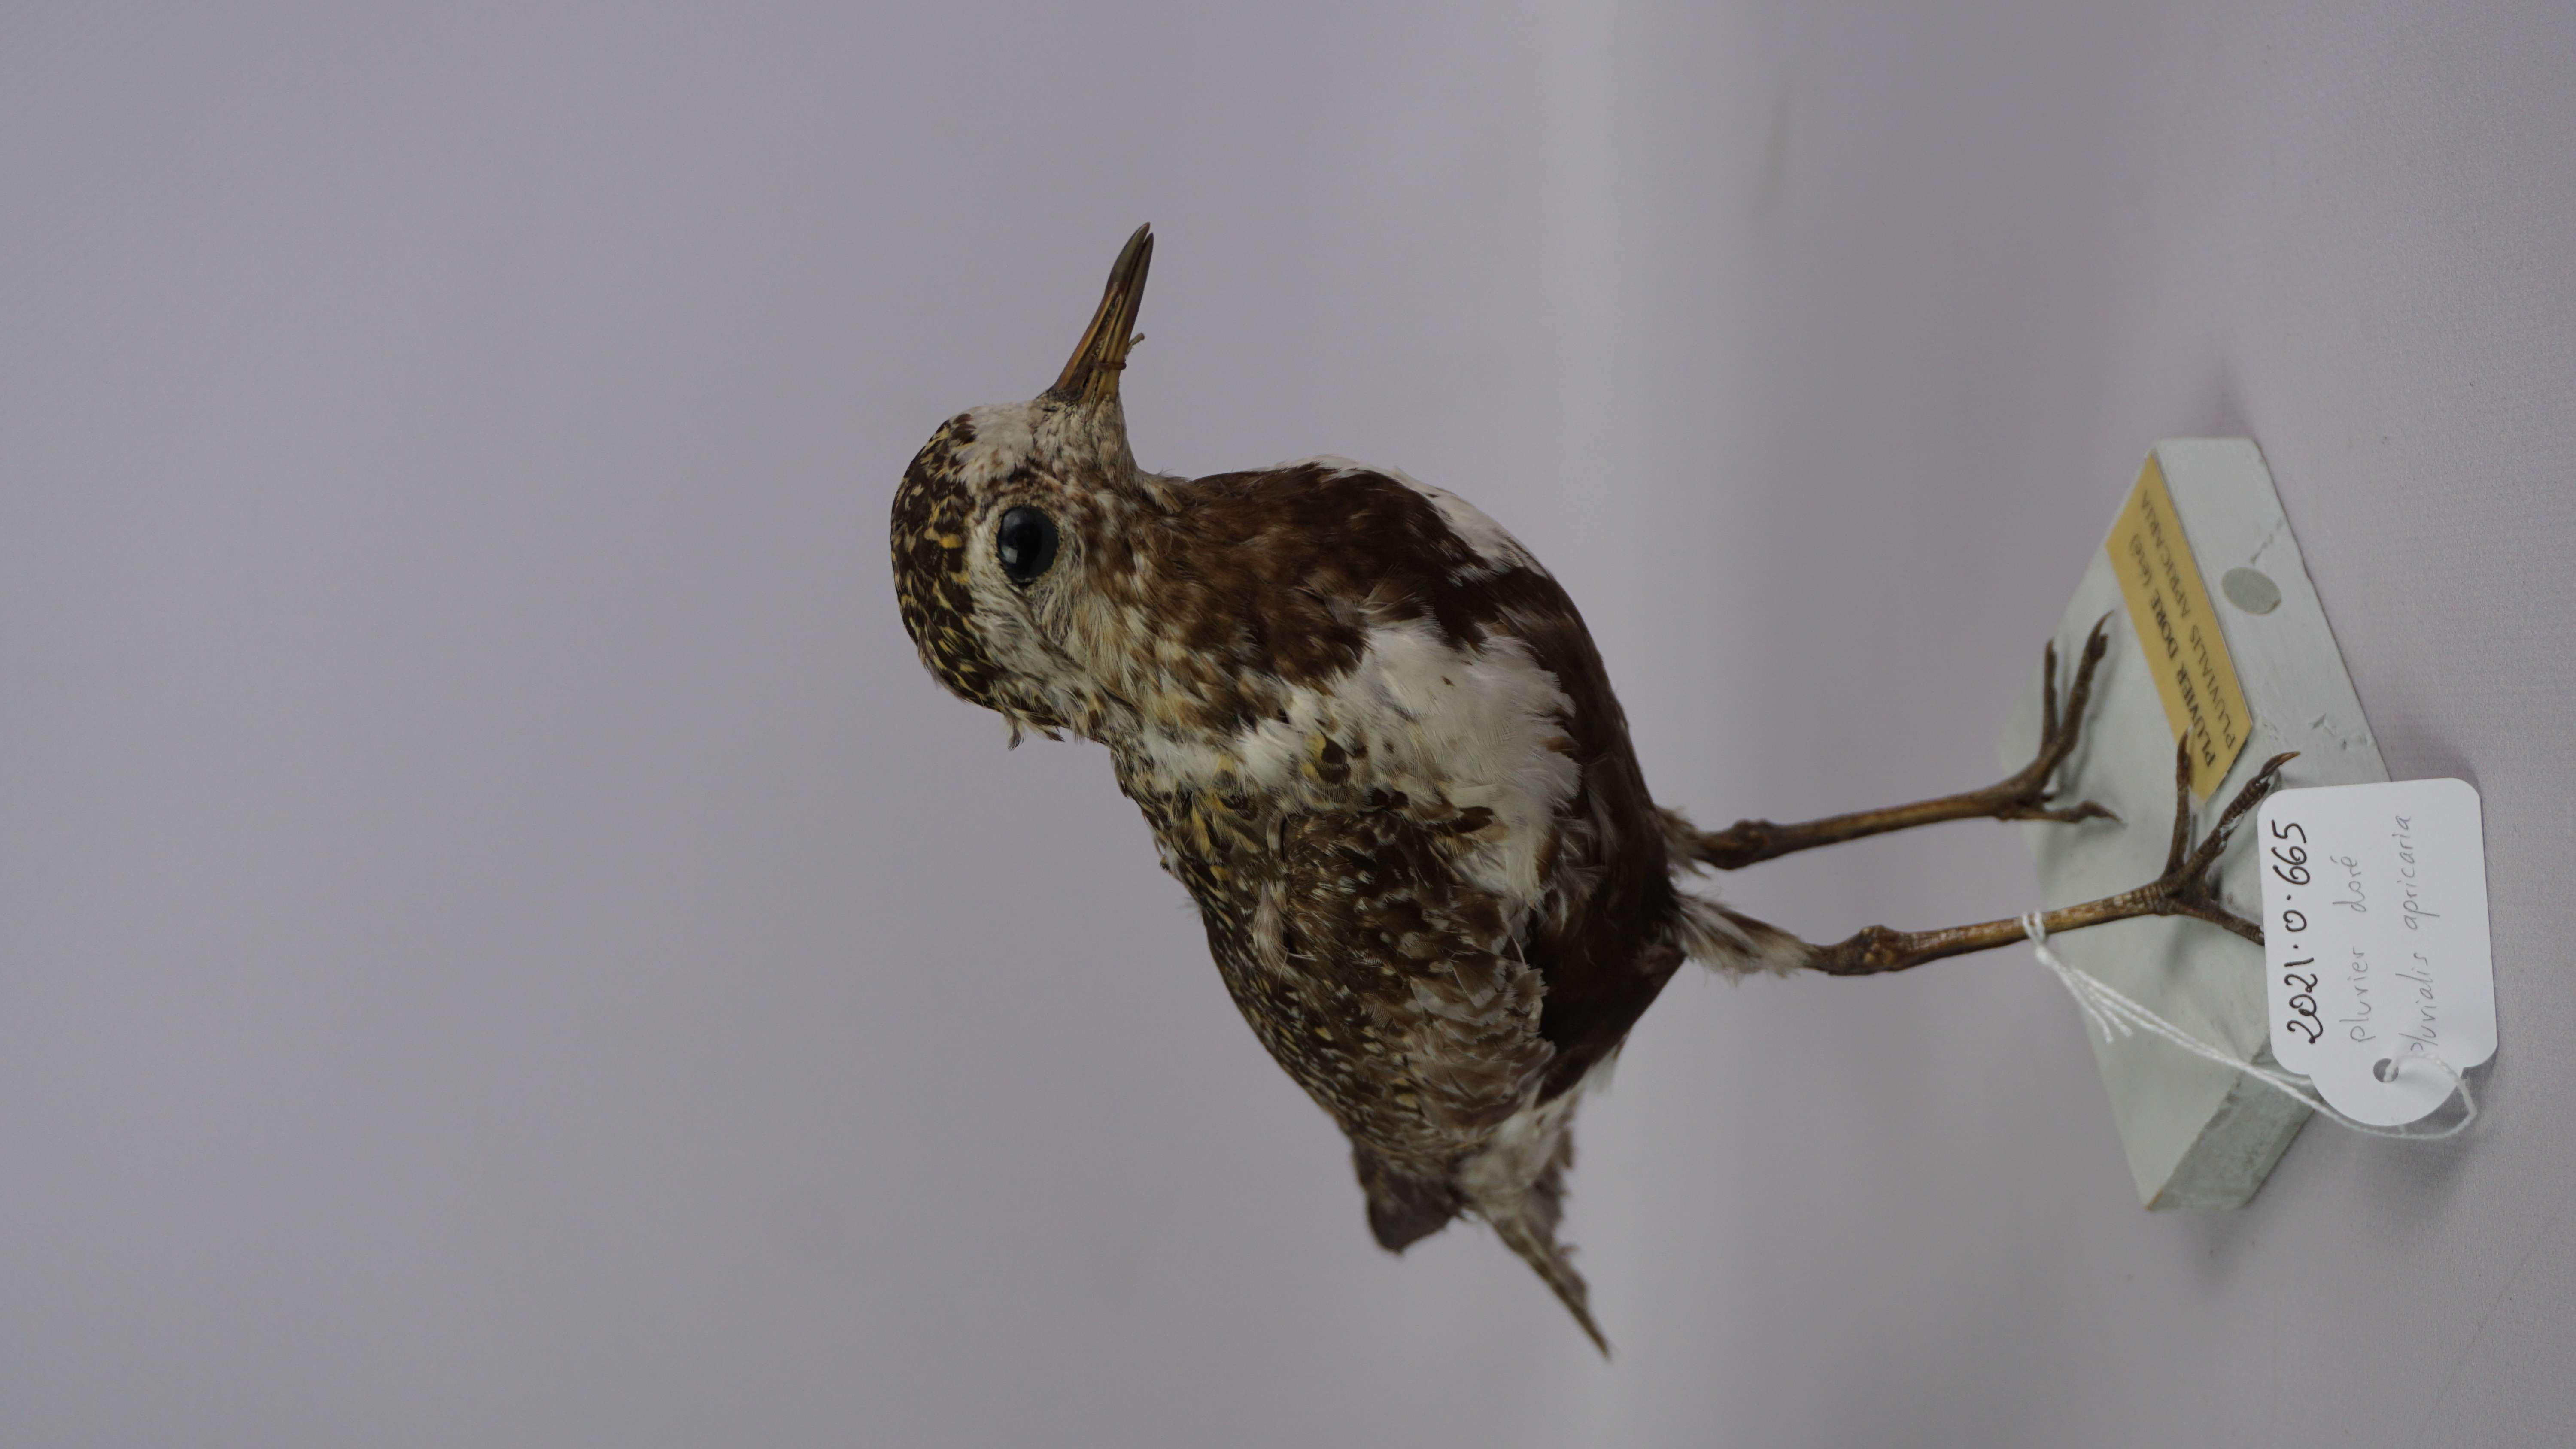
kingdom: Animalia
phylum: Chordata
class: Aves
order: Charadriiformes
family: Charadriidae
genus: Pluvialis
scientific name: Pluvialis apricaria
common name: European golden plover
